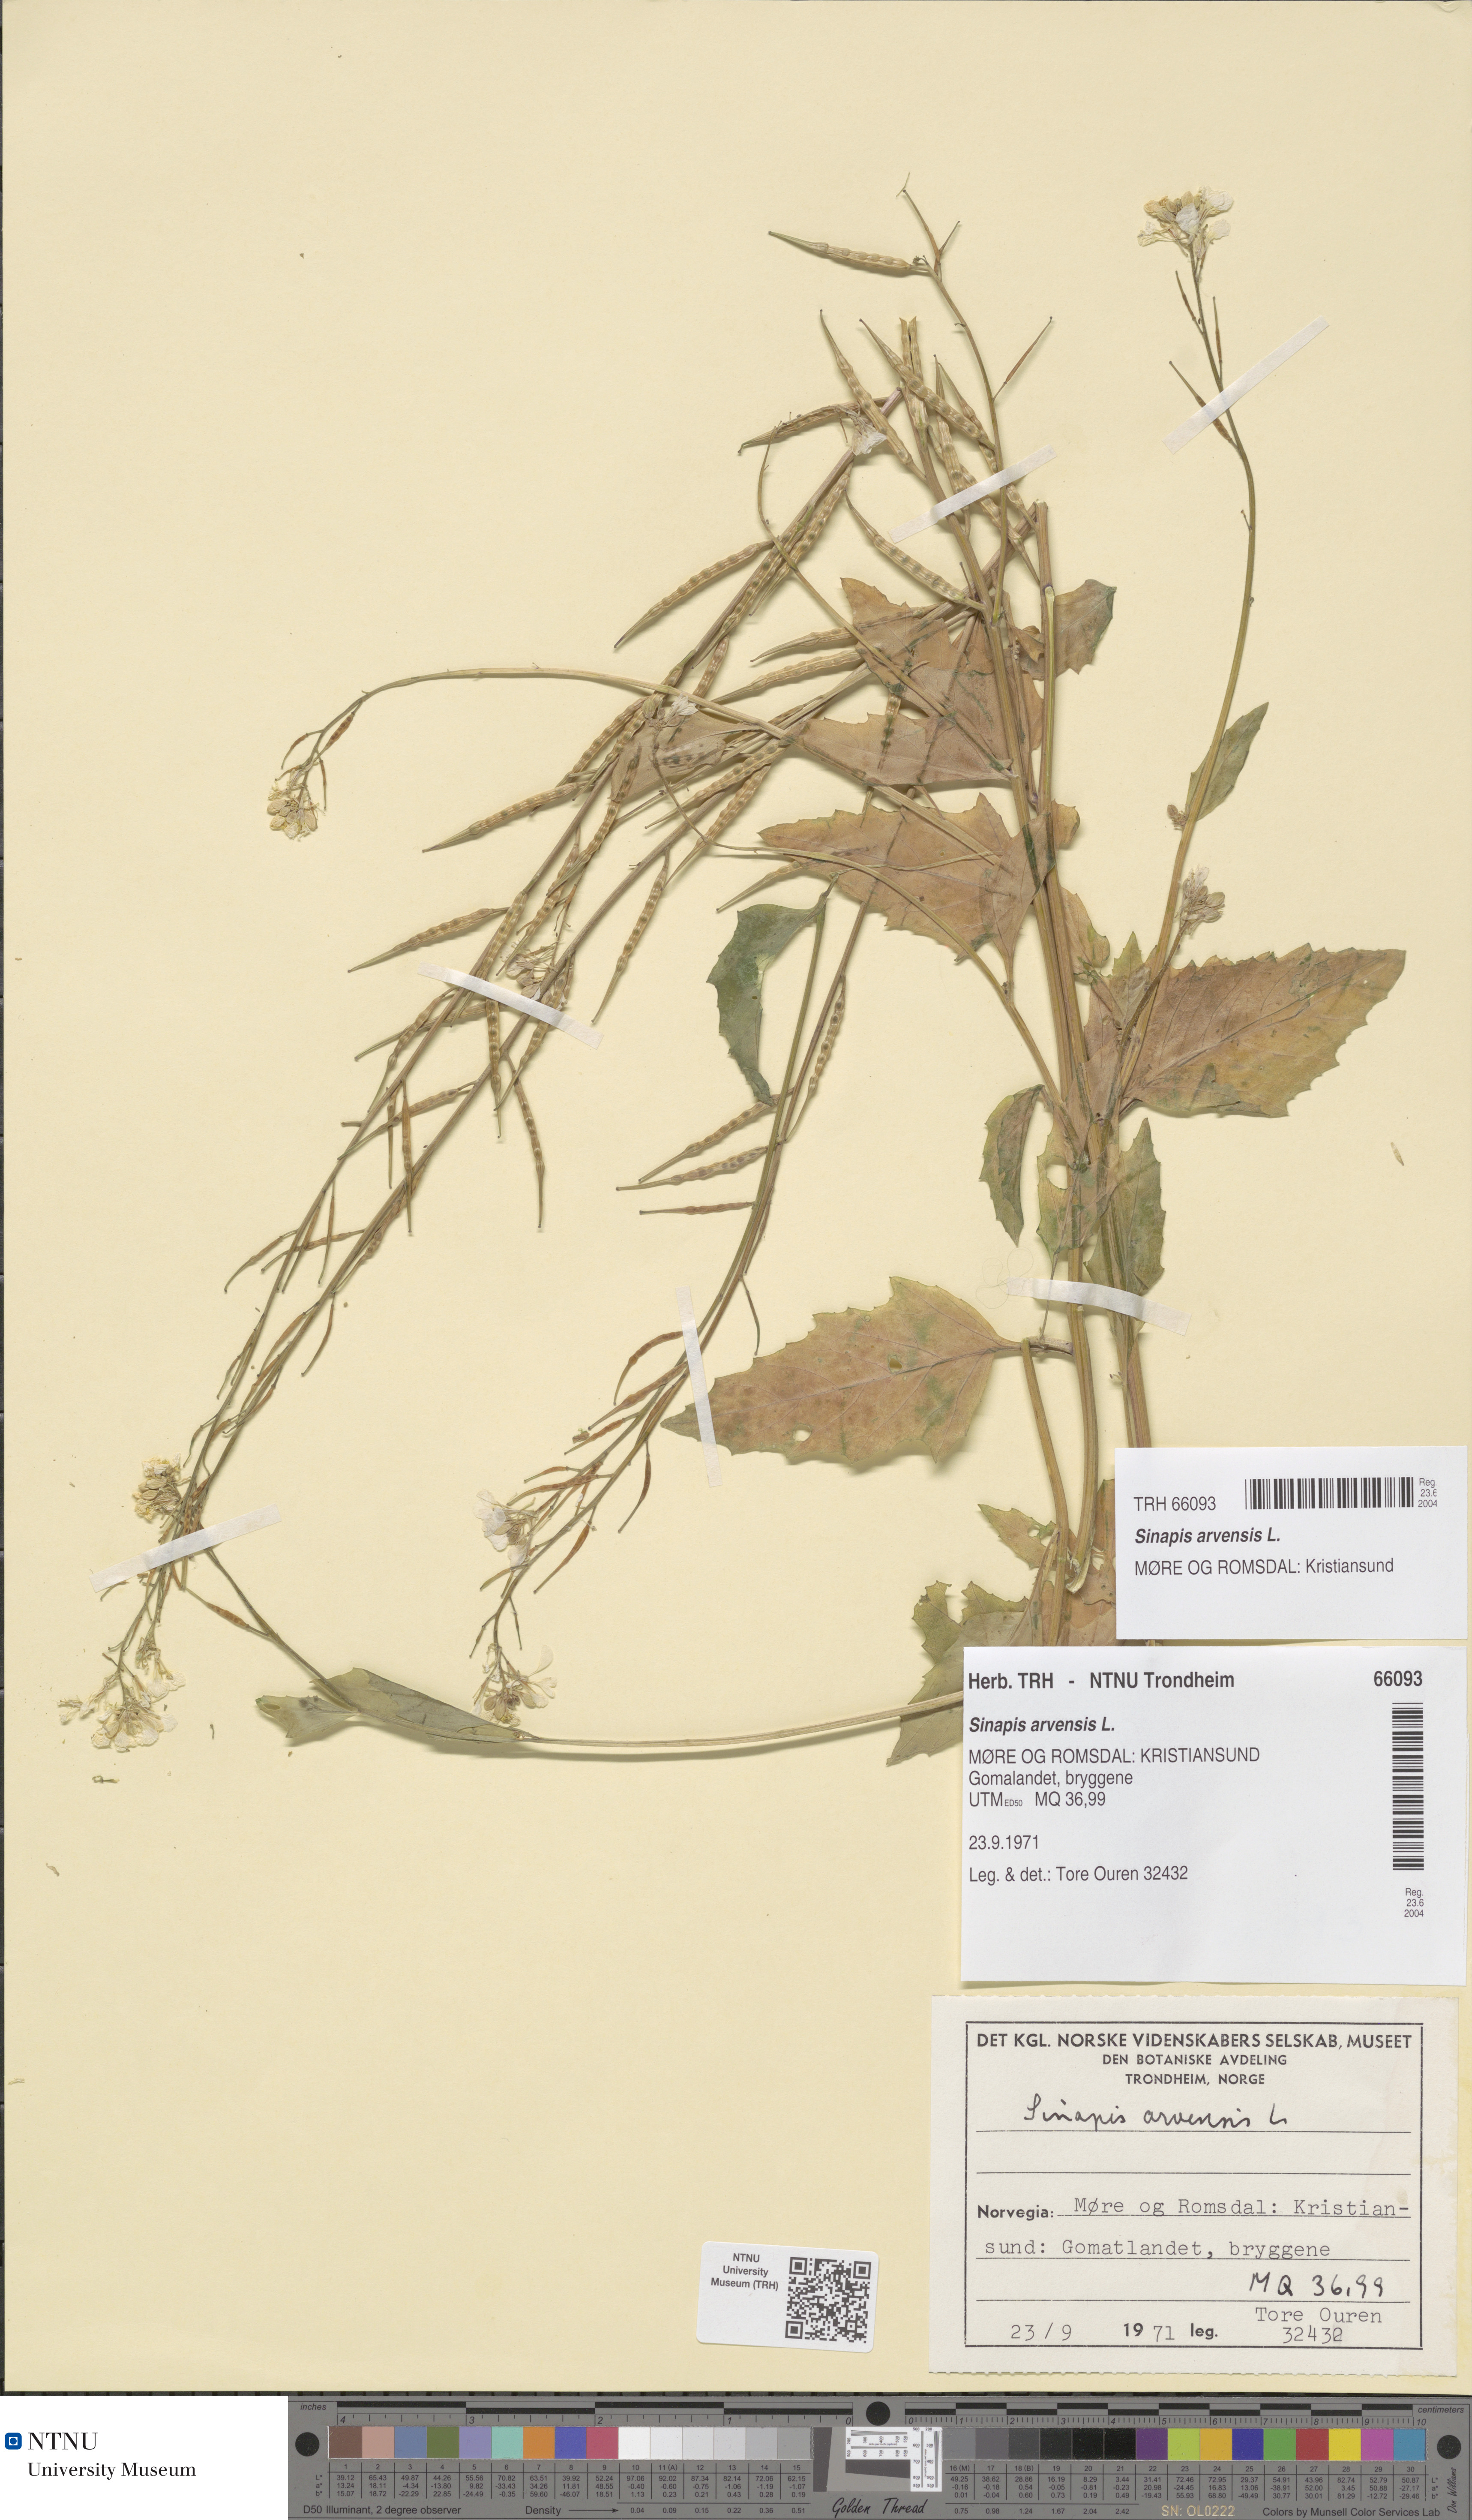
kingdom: Plantae
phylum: Tracheophyta
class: Magnoliopsida
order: Brassicales
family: Brassicaceae
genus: Sinapis
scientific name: Sinapis arvensis
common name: Charlock
